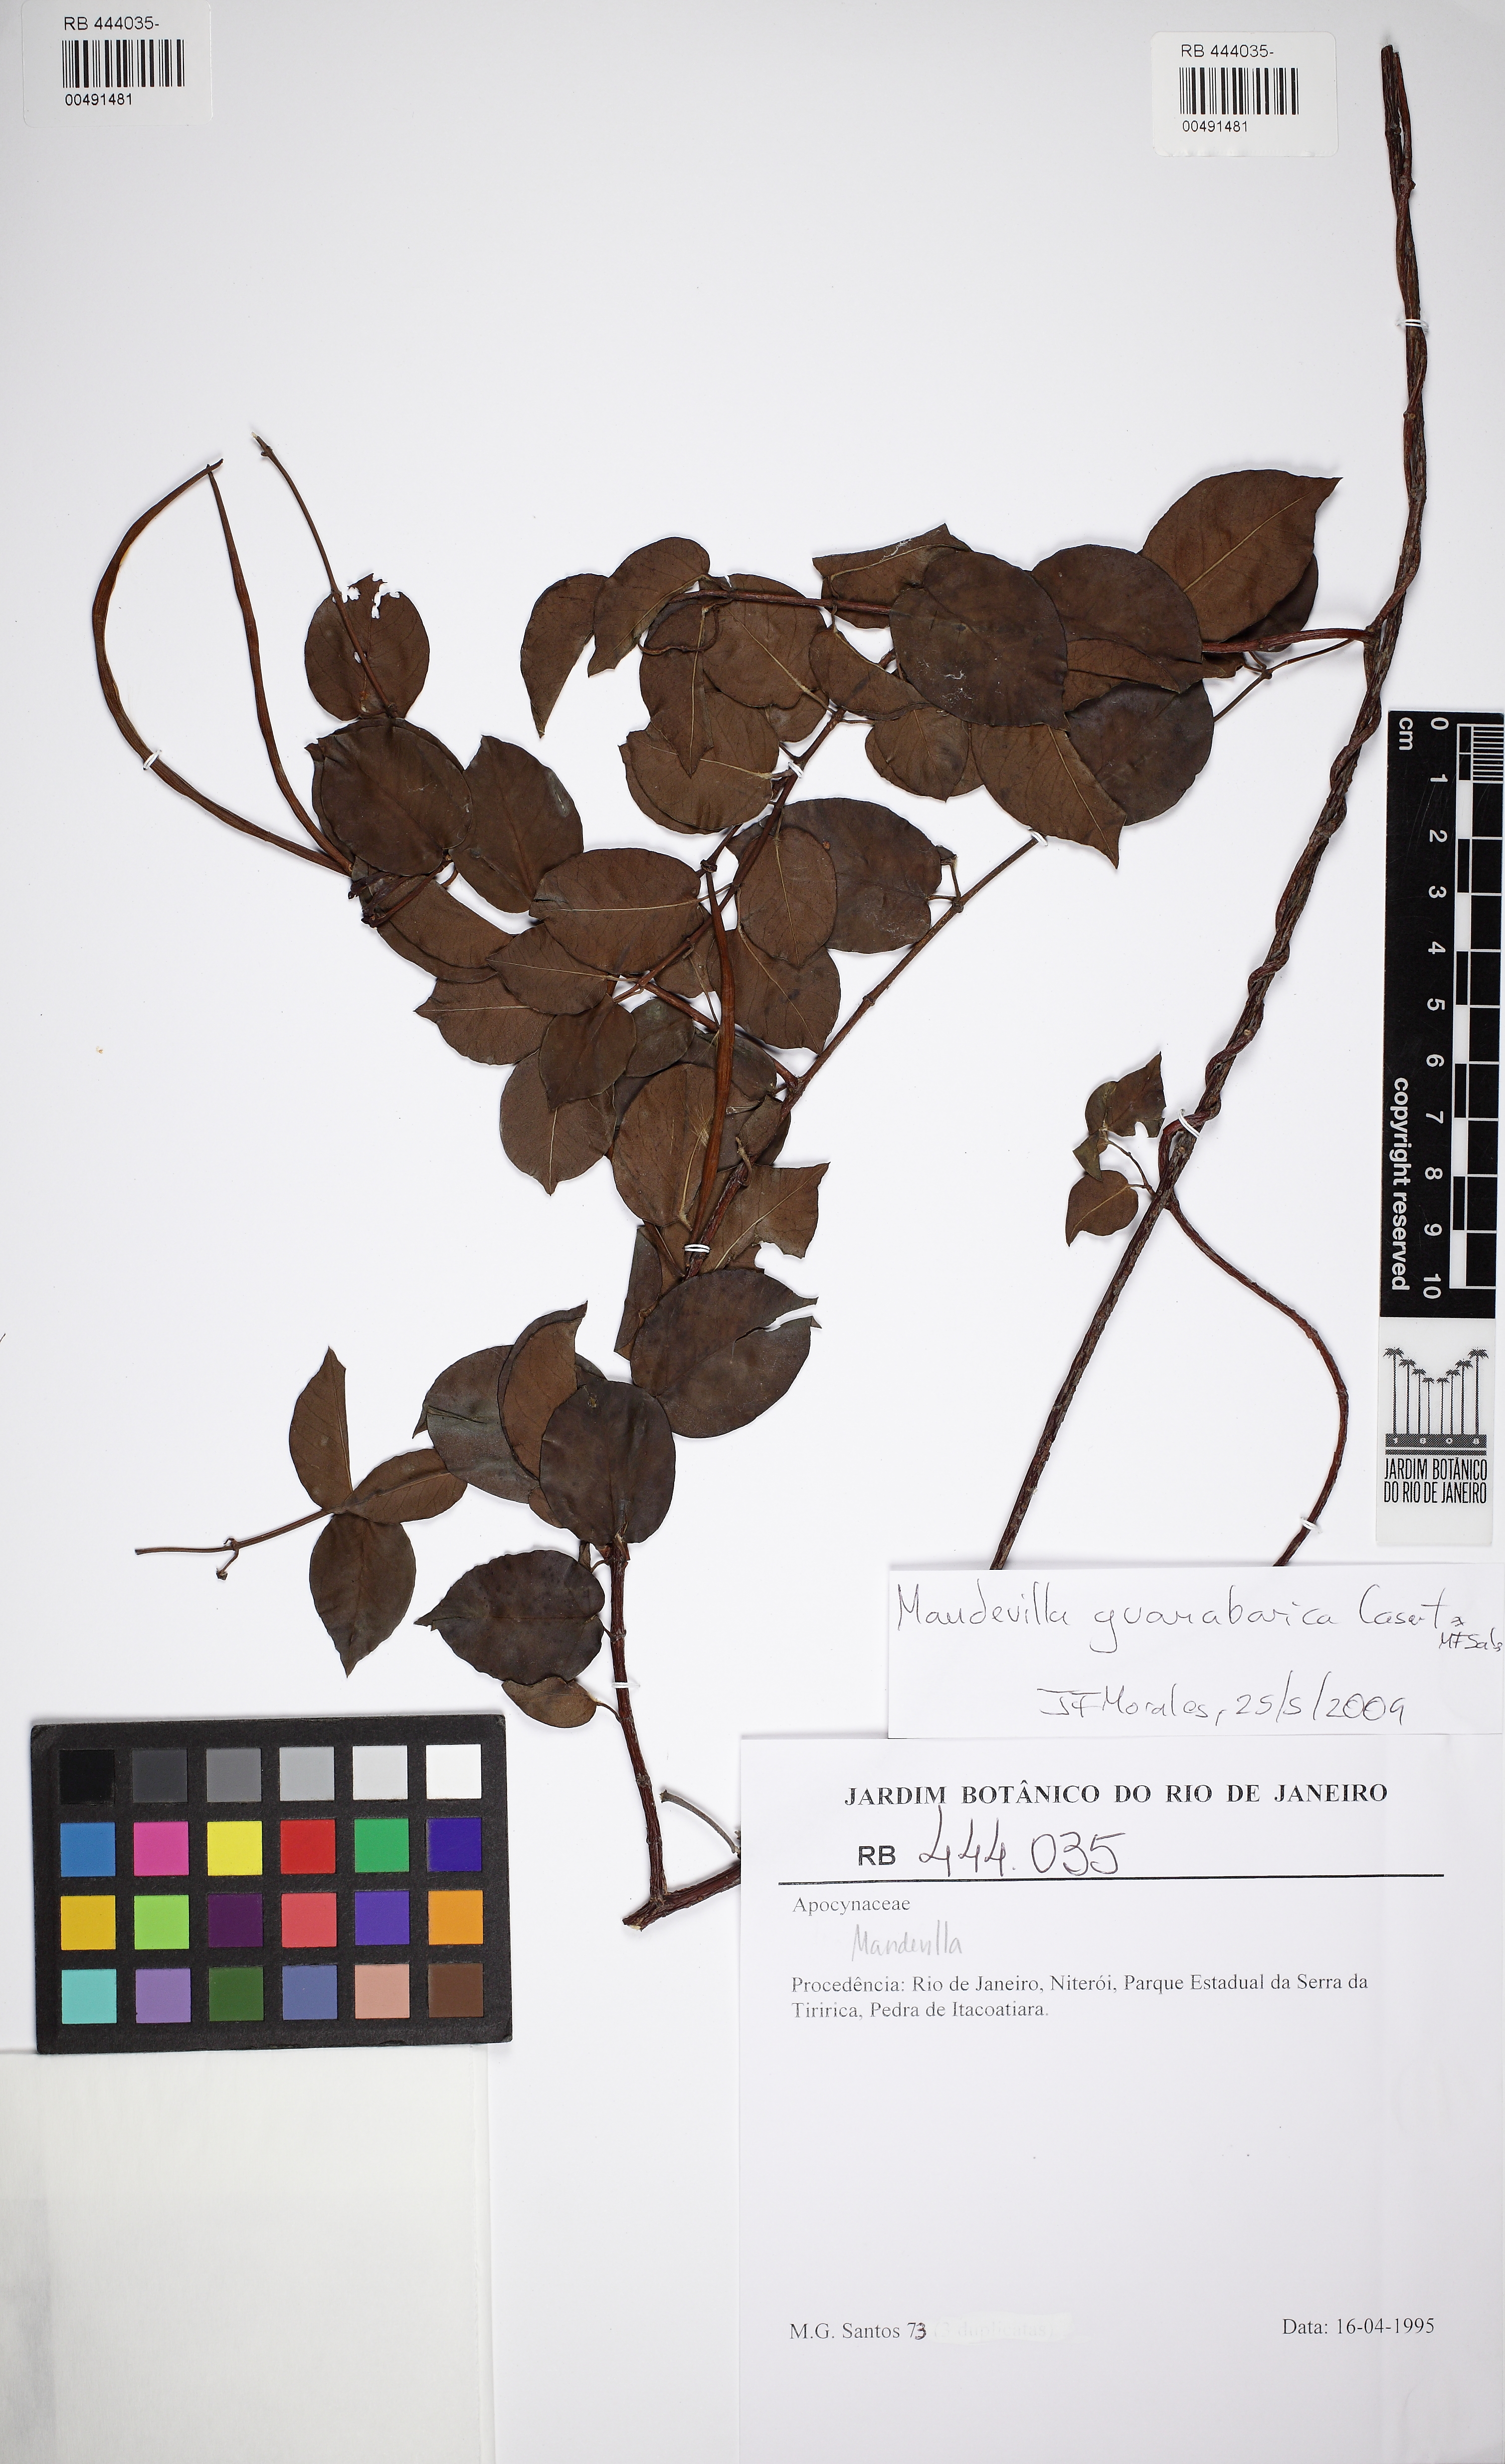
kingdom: Plantae
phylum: Tracheophyta
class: Magnoliopsida
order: Gentianales
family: Apocynaceae
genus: Mandevilla
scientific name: Mandevilla guanabarica
